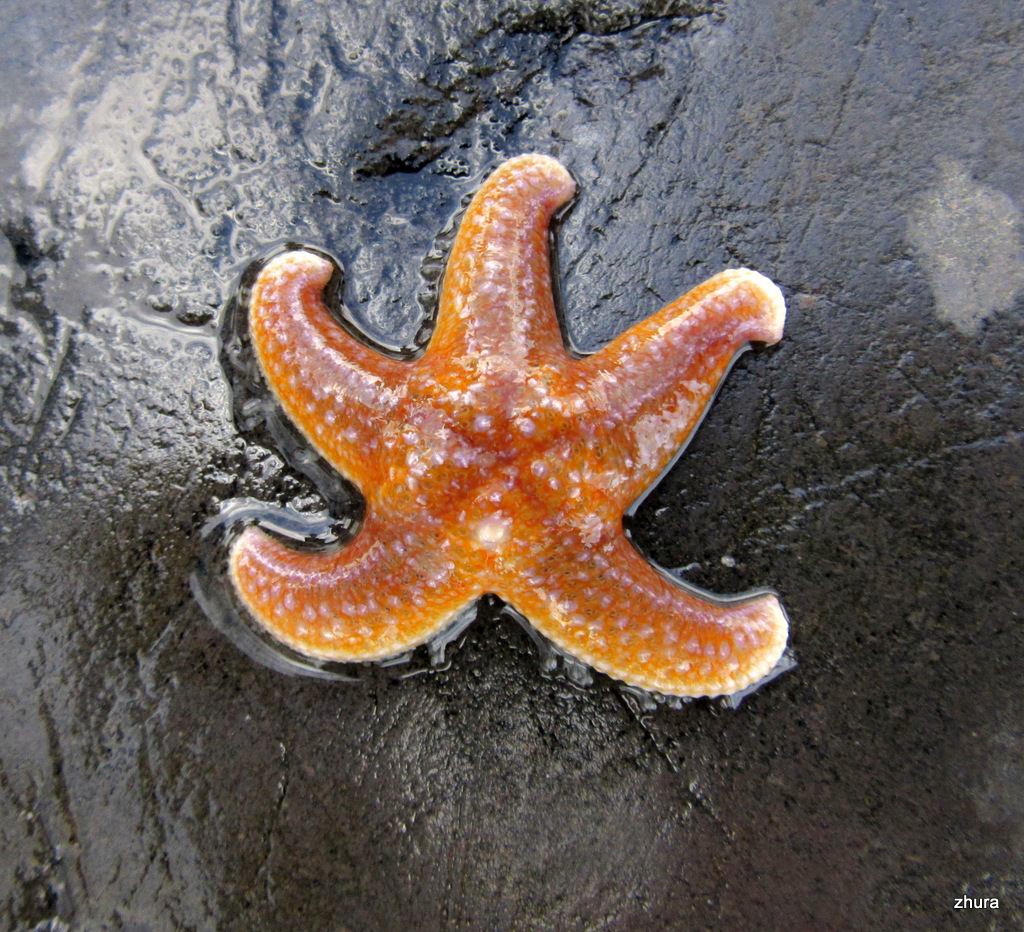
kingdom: Animalia
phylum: Echinodermata
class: Asteroidea
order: Forcipulatida
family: Asteriidae
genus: Asterias
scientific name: Asterias rubens
